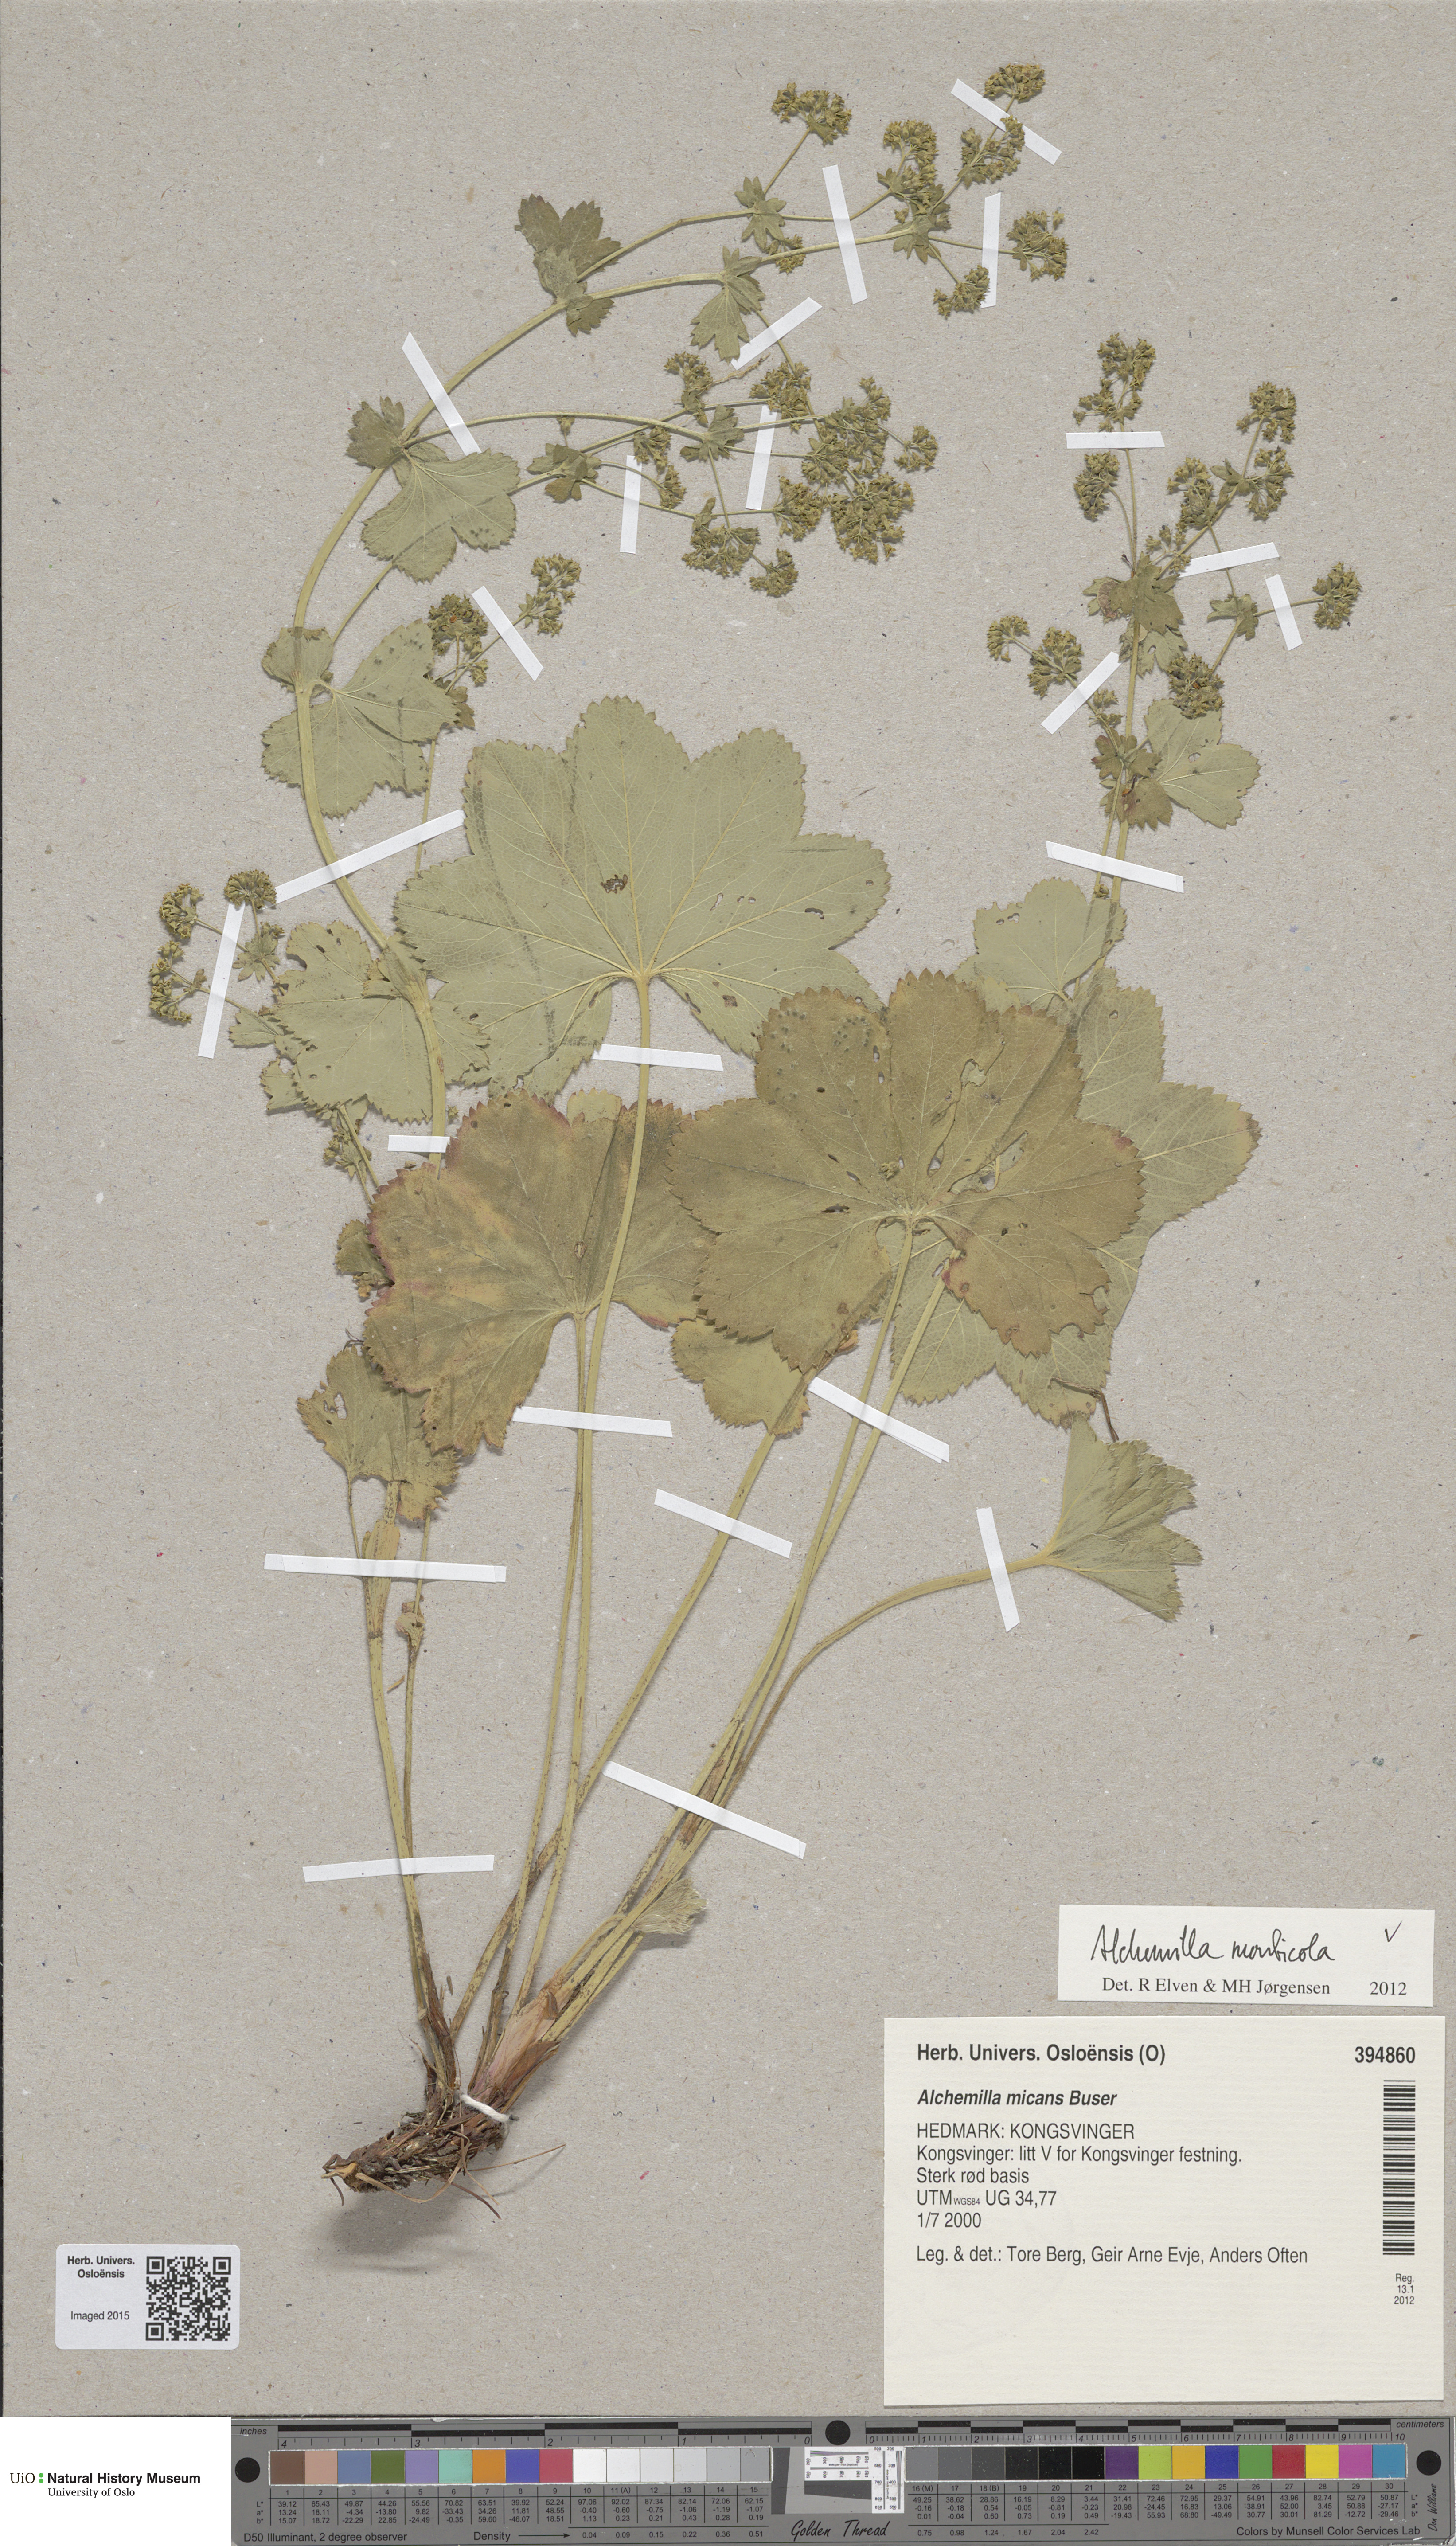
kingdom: Plantae
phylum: Tracheophyta
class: Magnoliopsida
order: Rosales
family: Rosaceae
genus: Alchemilla
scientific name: Alchemilla monticola
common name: Hairy lady's mantle
